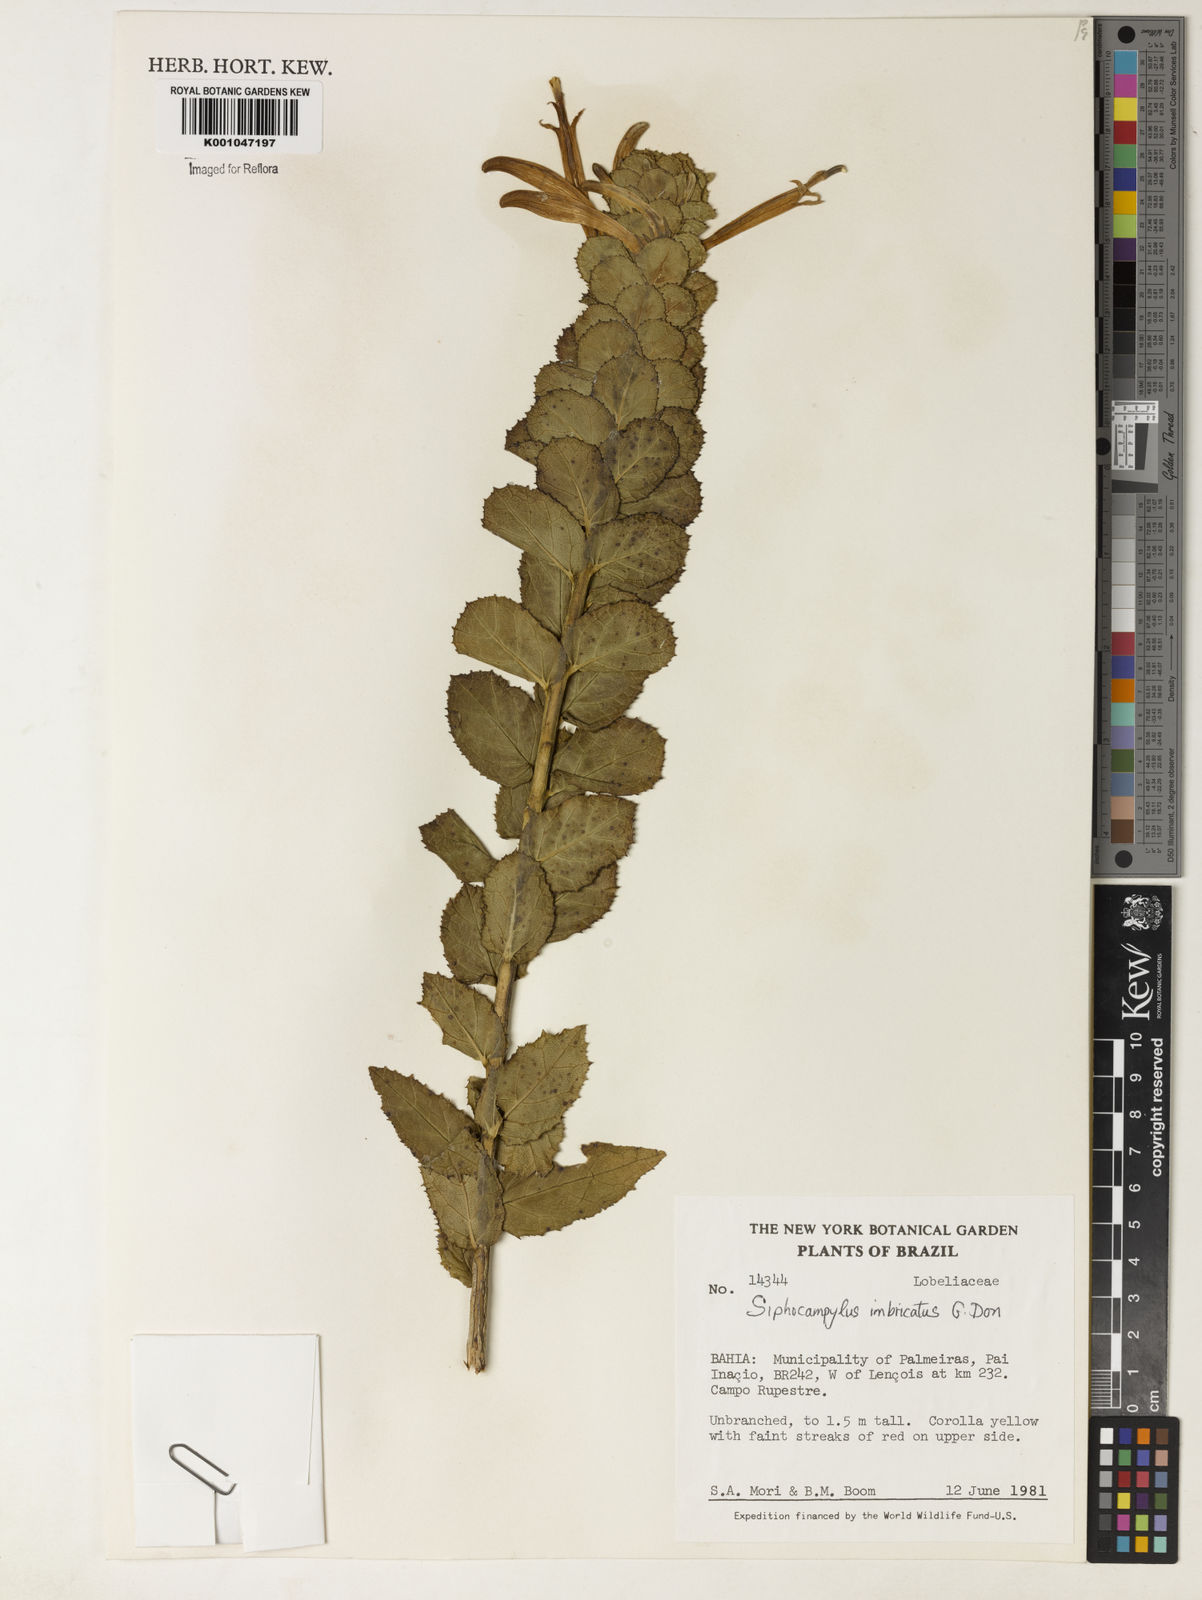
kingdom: Plantae
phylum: Tracheophyta
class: Magnoliopsida
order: Asterales
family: Campanulaceae
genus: Siphocampylus
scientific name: Siphocampylus imbricatus
